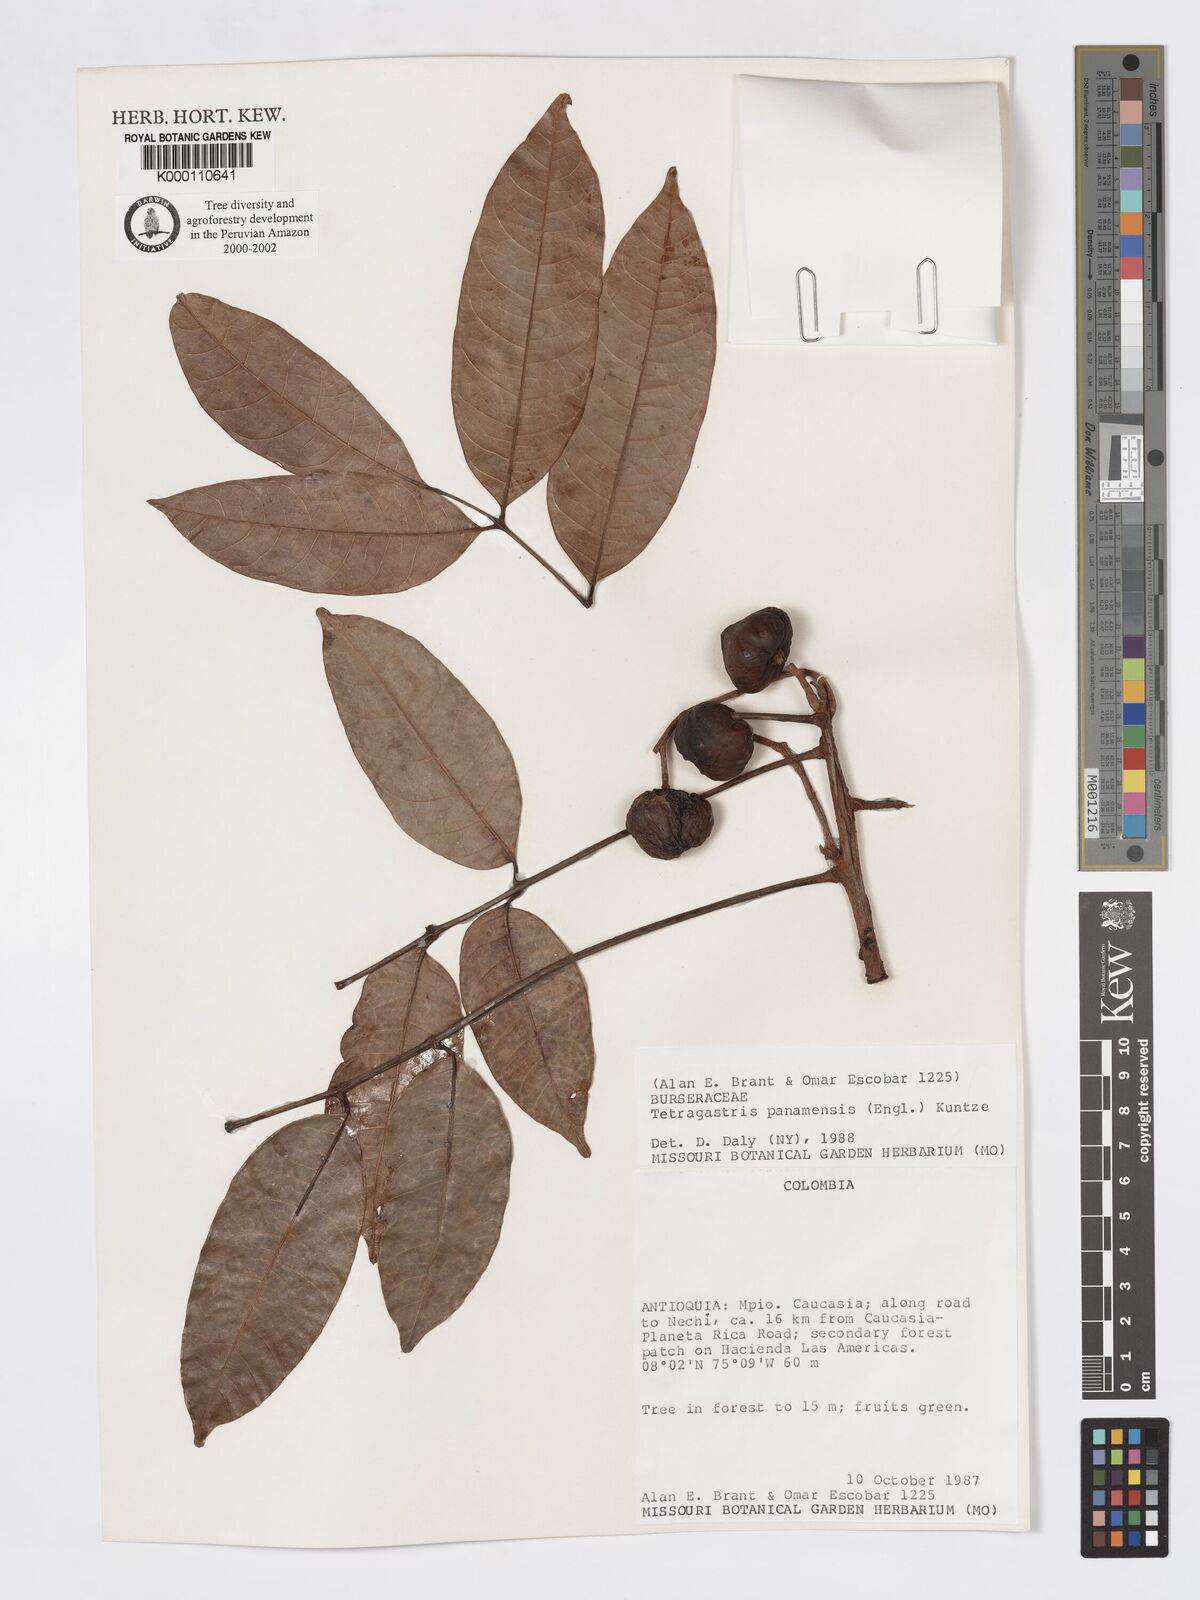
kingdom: Plantae
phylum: Tracheophyta
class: Magnoliopsida
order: Sapindales
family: Burseraceae
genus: Tetragastris
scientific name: Tetragastris panamensis
